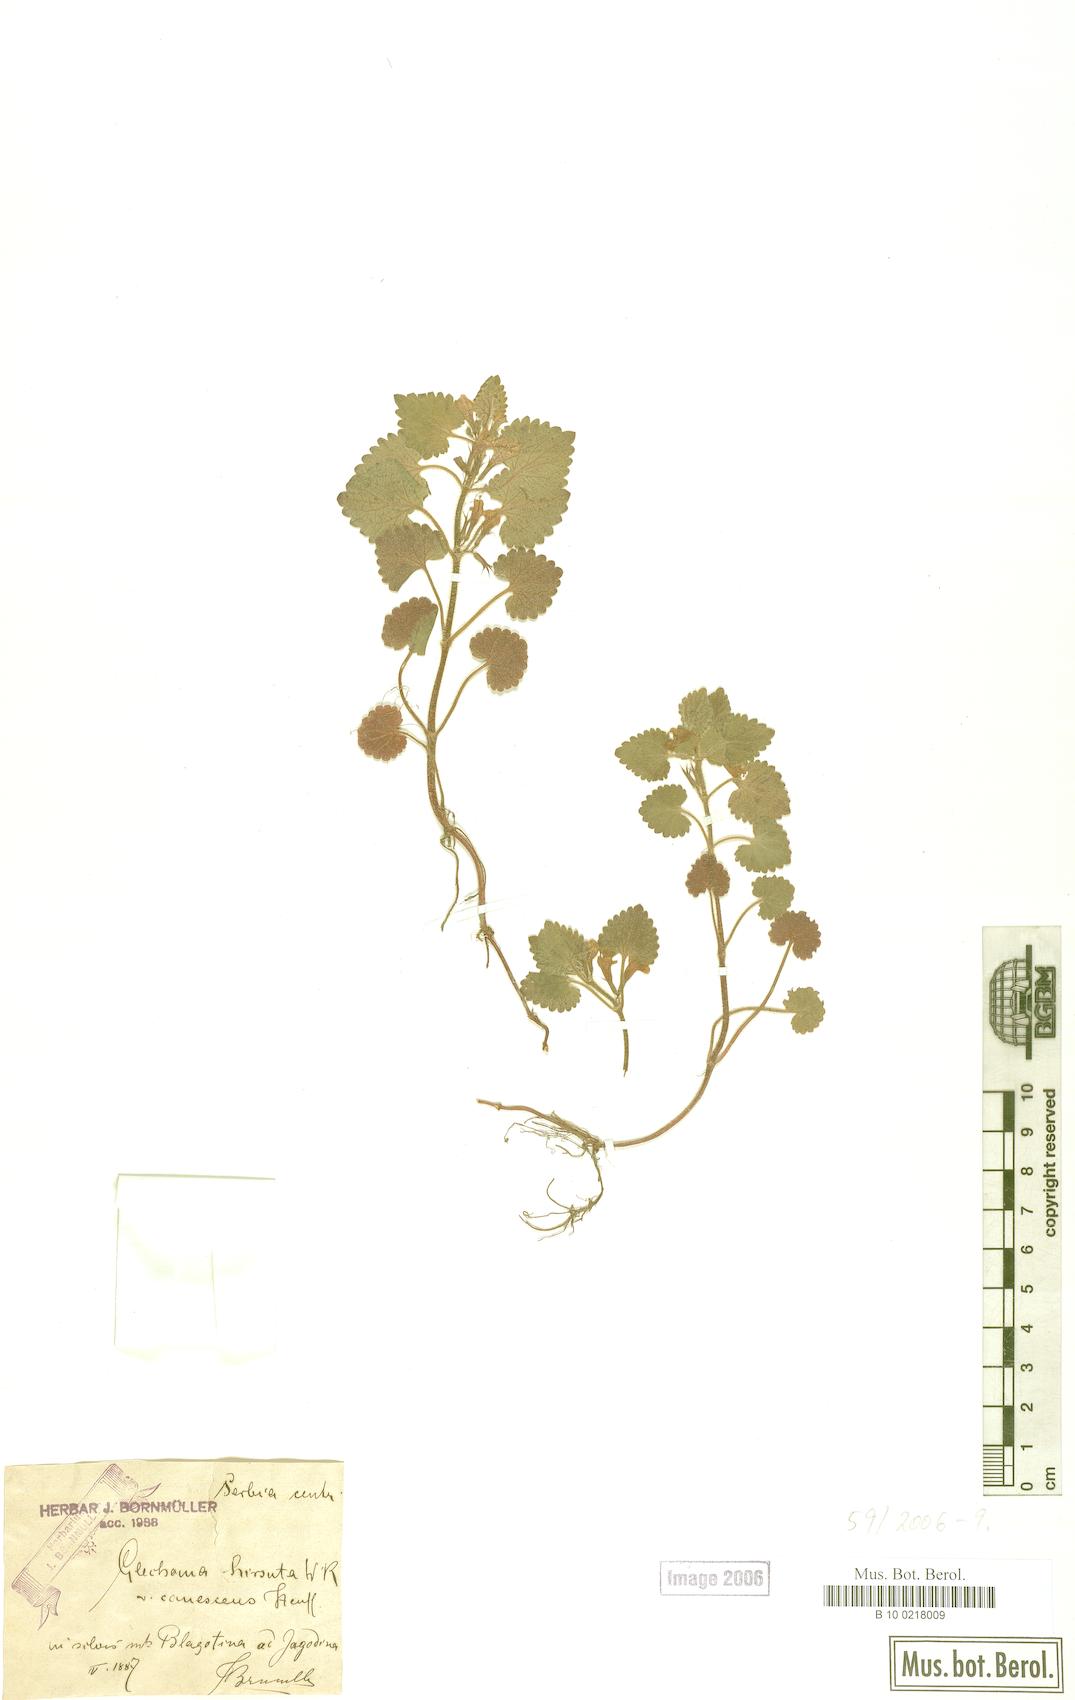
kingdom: Plantae
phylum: Tracheophyta
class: Magnoliopsida
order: Lamiales
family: Lamiaceae
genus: Glechoma
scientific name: Glechoma hirsuta
